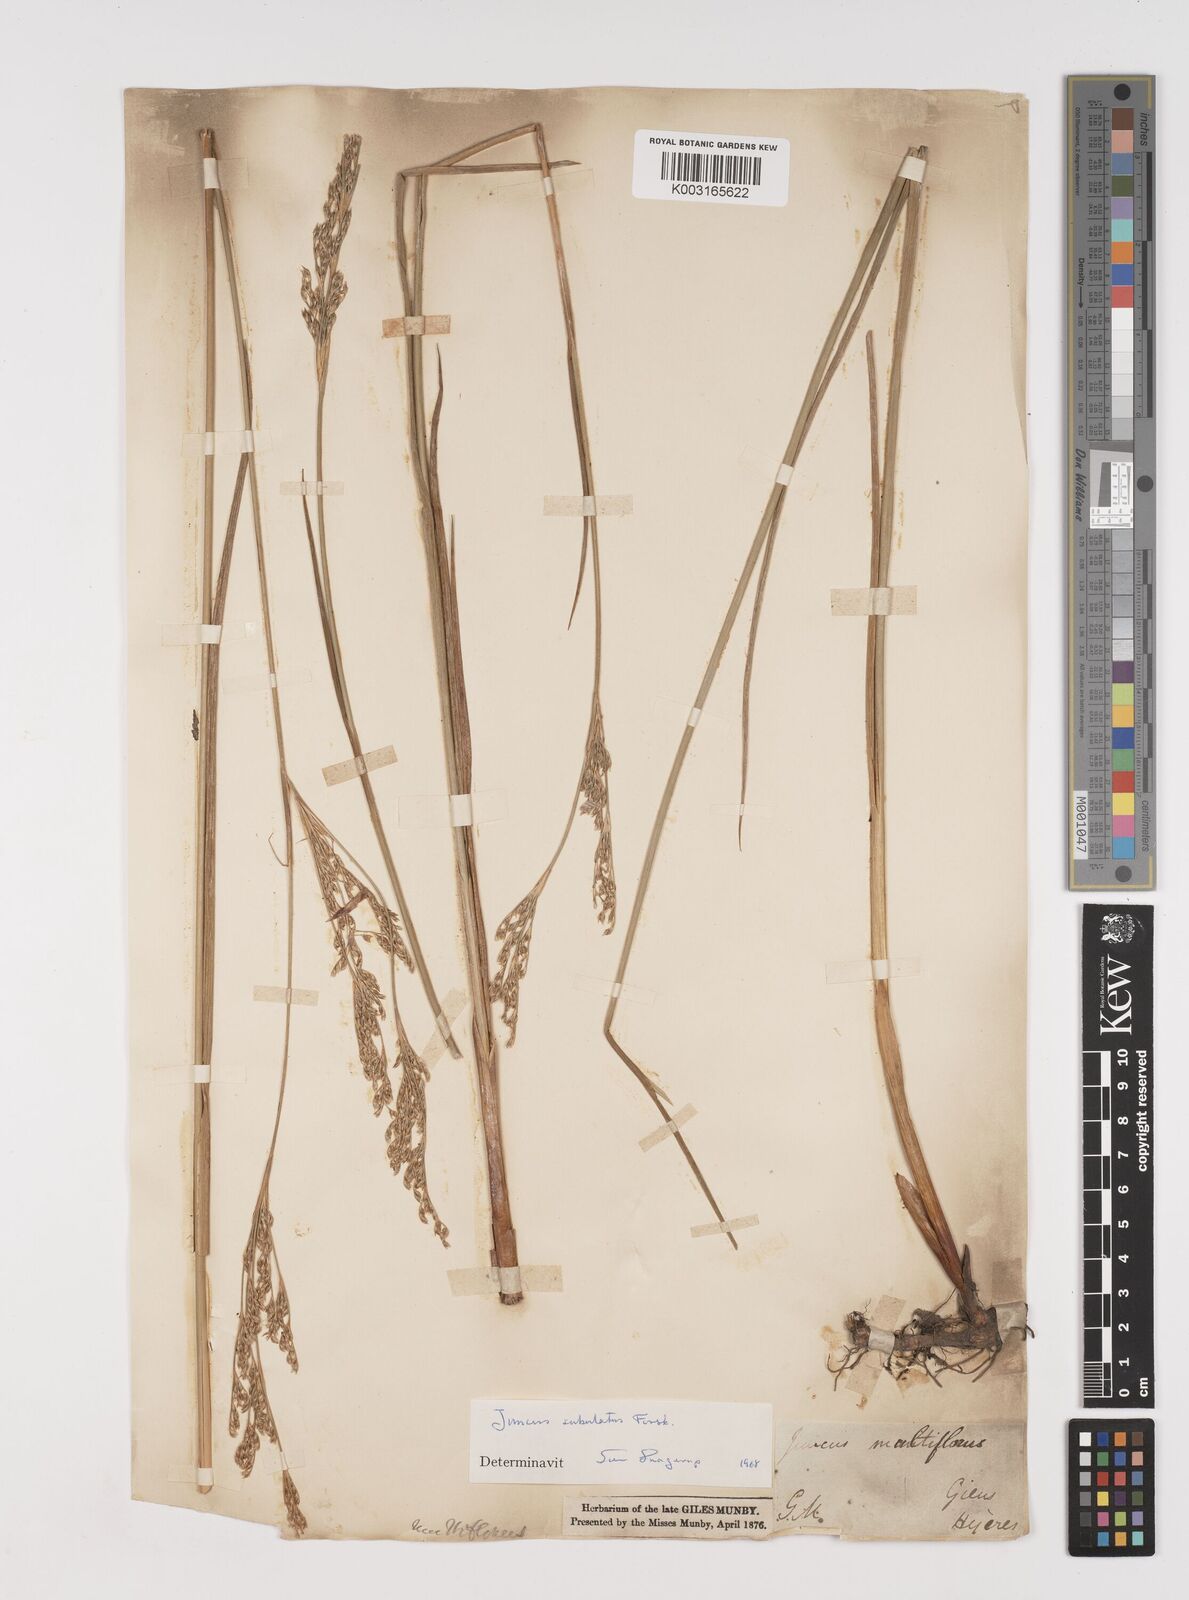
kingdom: Plantae
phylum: Tracheophyta
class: Liliopsida
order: Poales
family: Juncaceae
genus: Juncus
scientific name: Juncus subulatus
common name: Somerset rush
